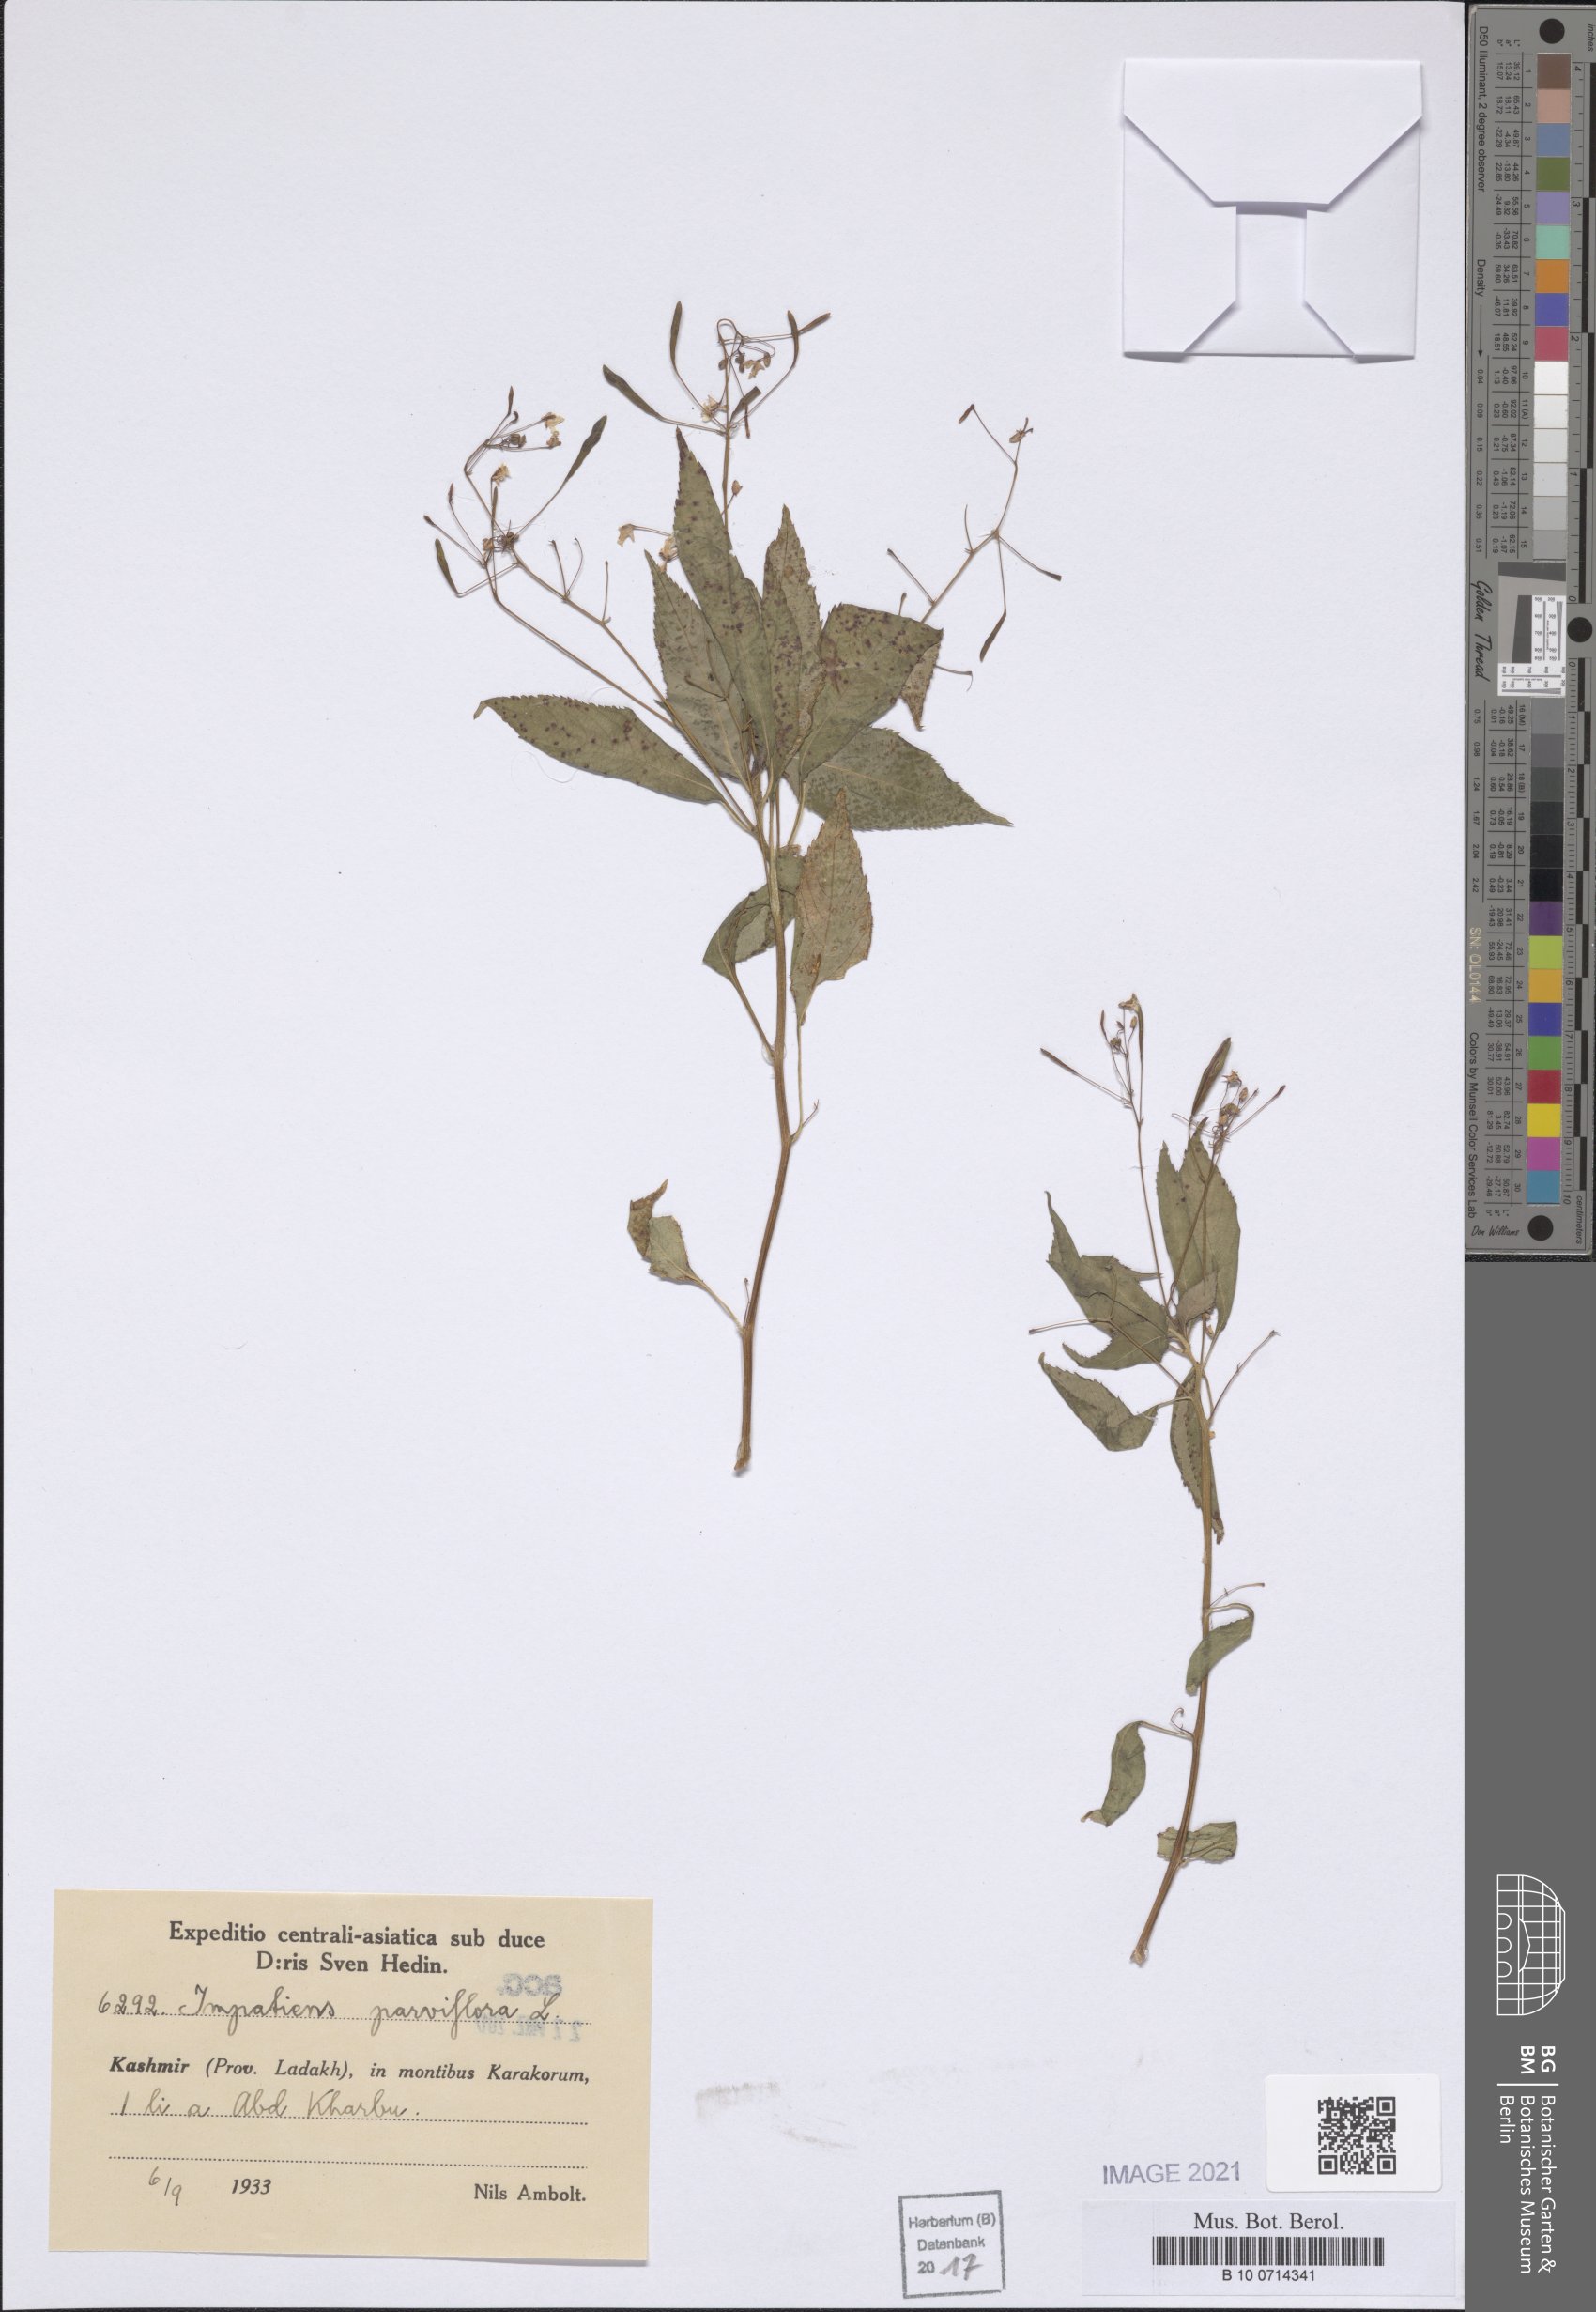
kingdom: Plantae
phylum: Tracheophyta
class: Magnoliopsida
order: Ericales
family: Balsaminaceae
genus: Impatiens
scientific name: Impatiens parviflora
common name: Small balsam
